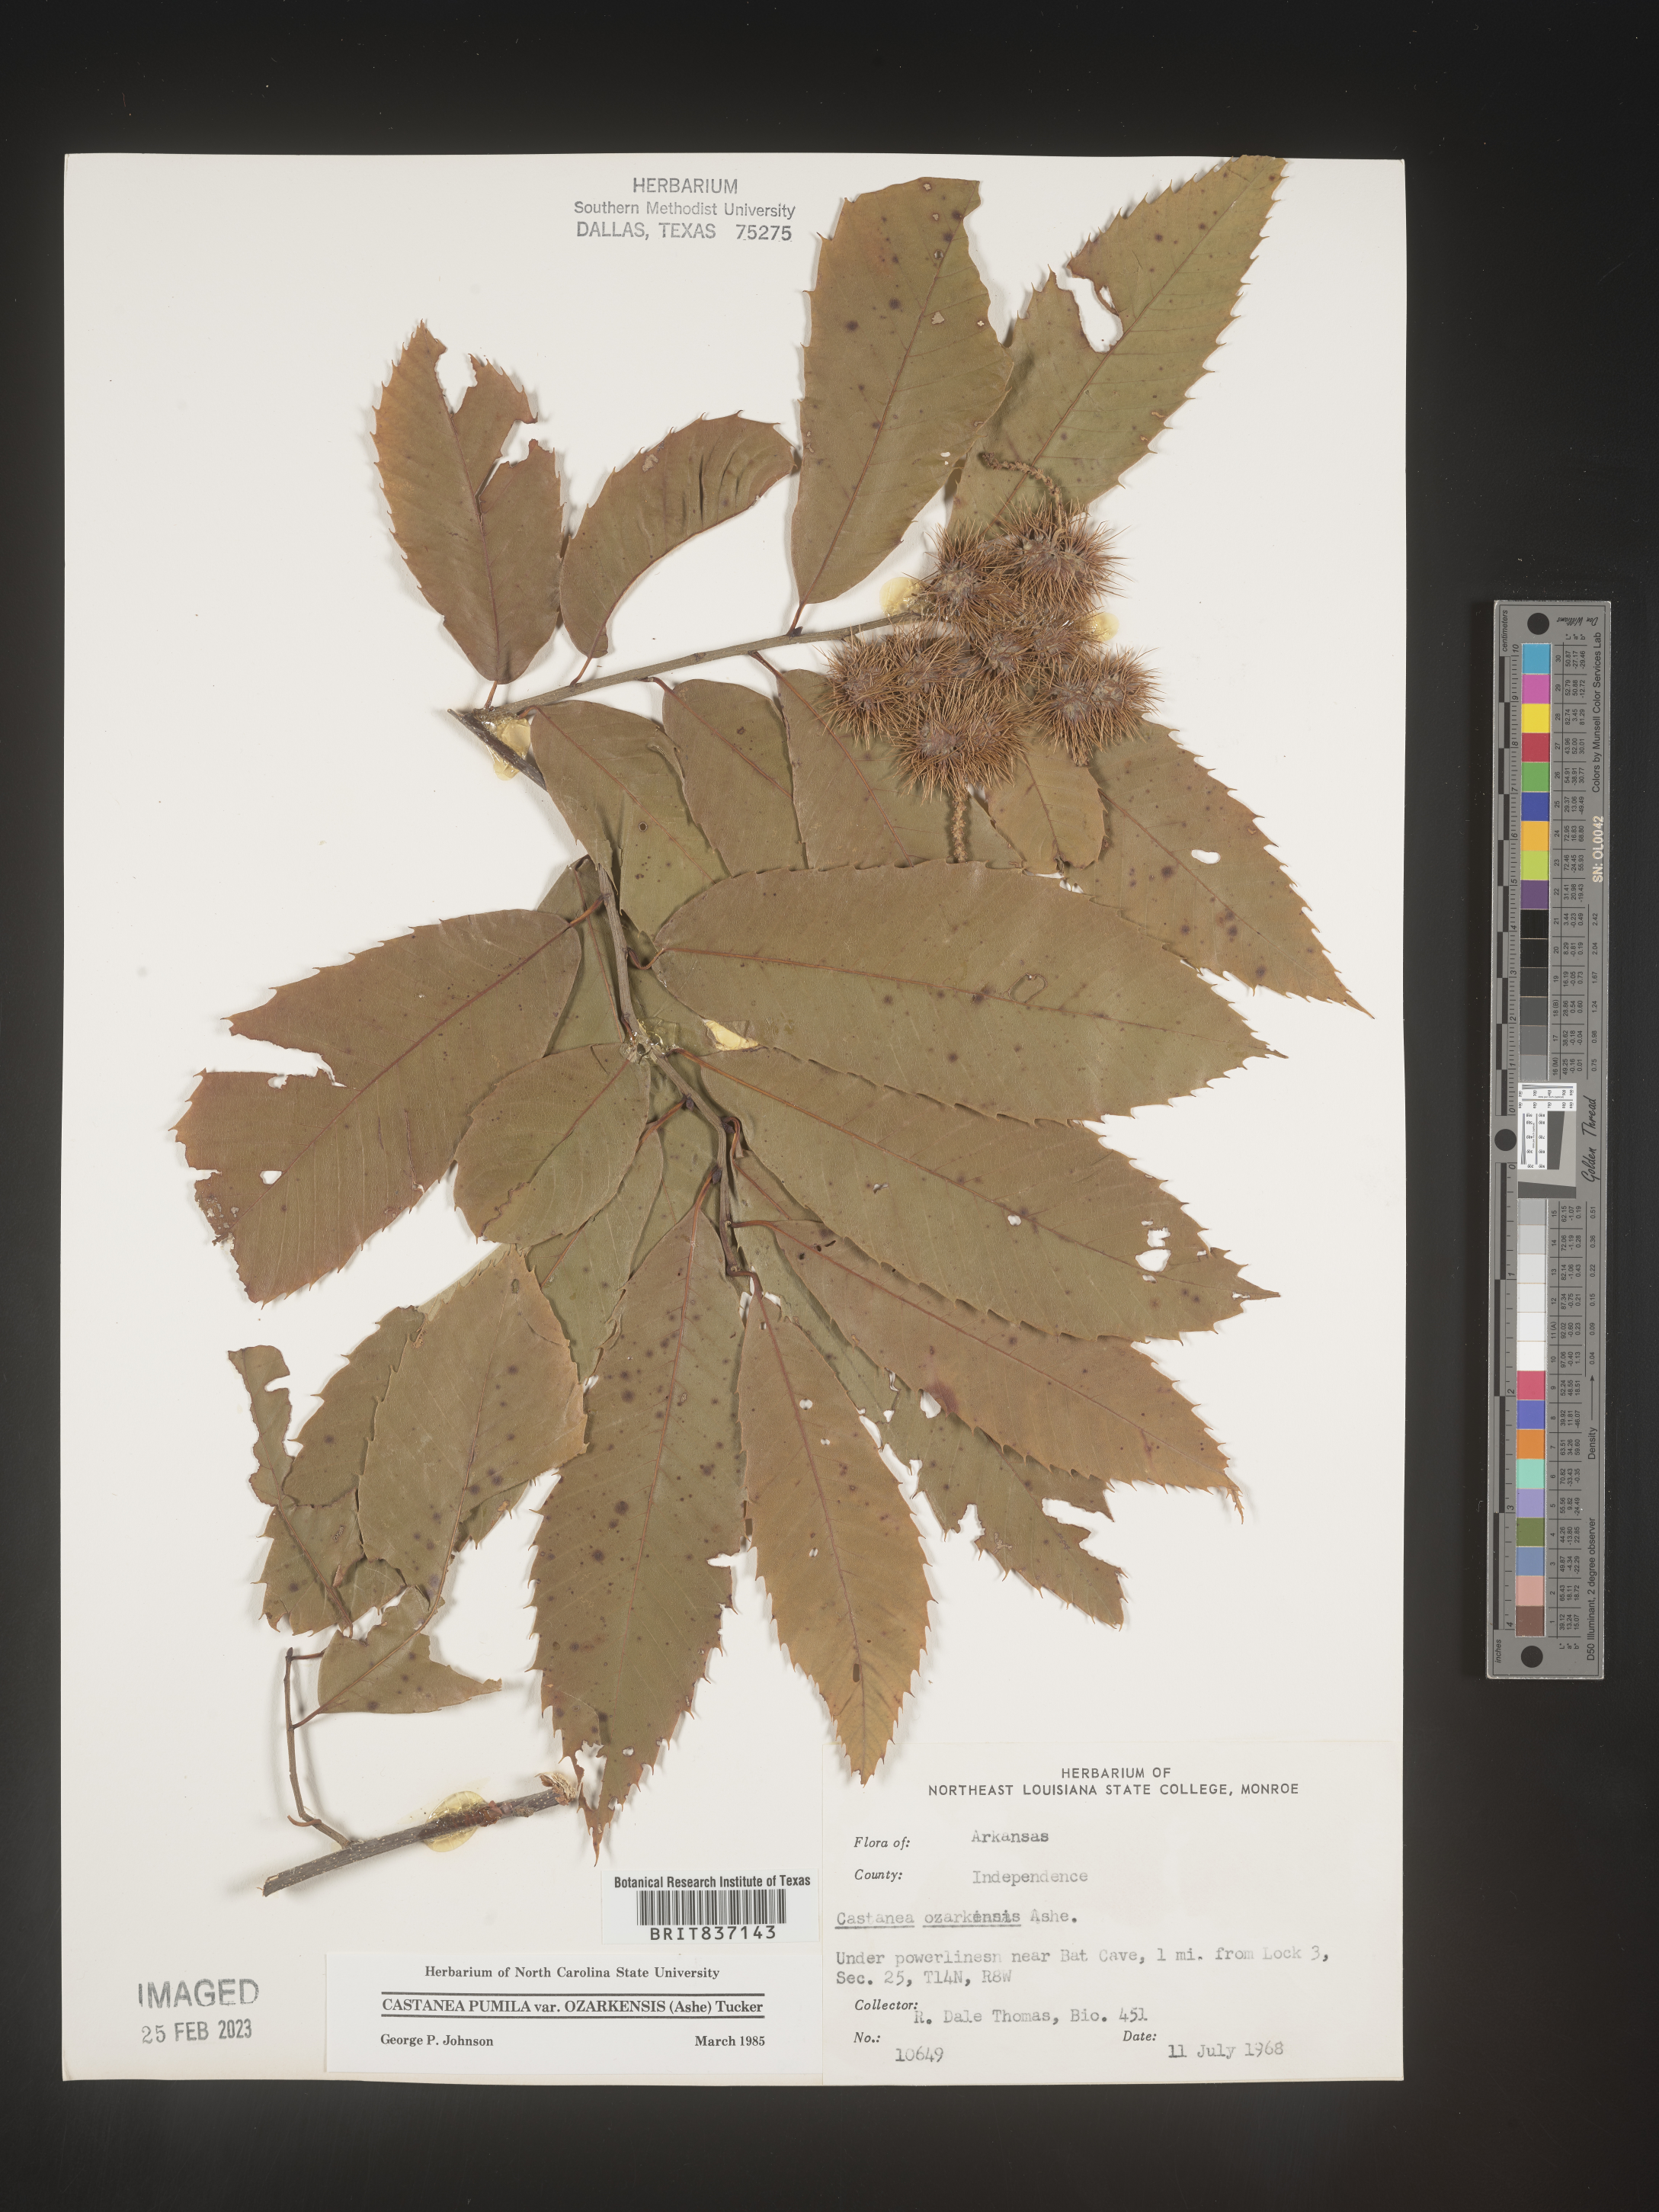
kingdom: Plantae
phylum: Tracheophyta
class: Magnoliopsida
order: Fagales
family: Fagaceae
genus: Castanea
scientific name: Castanea pumila
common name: Chinkapin
